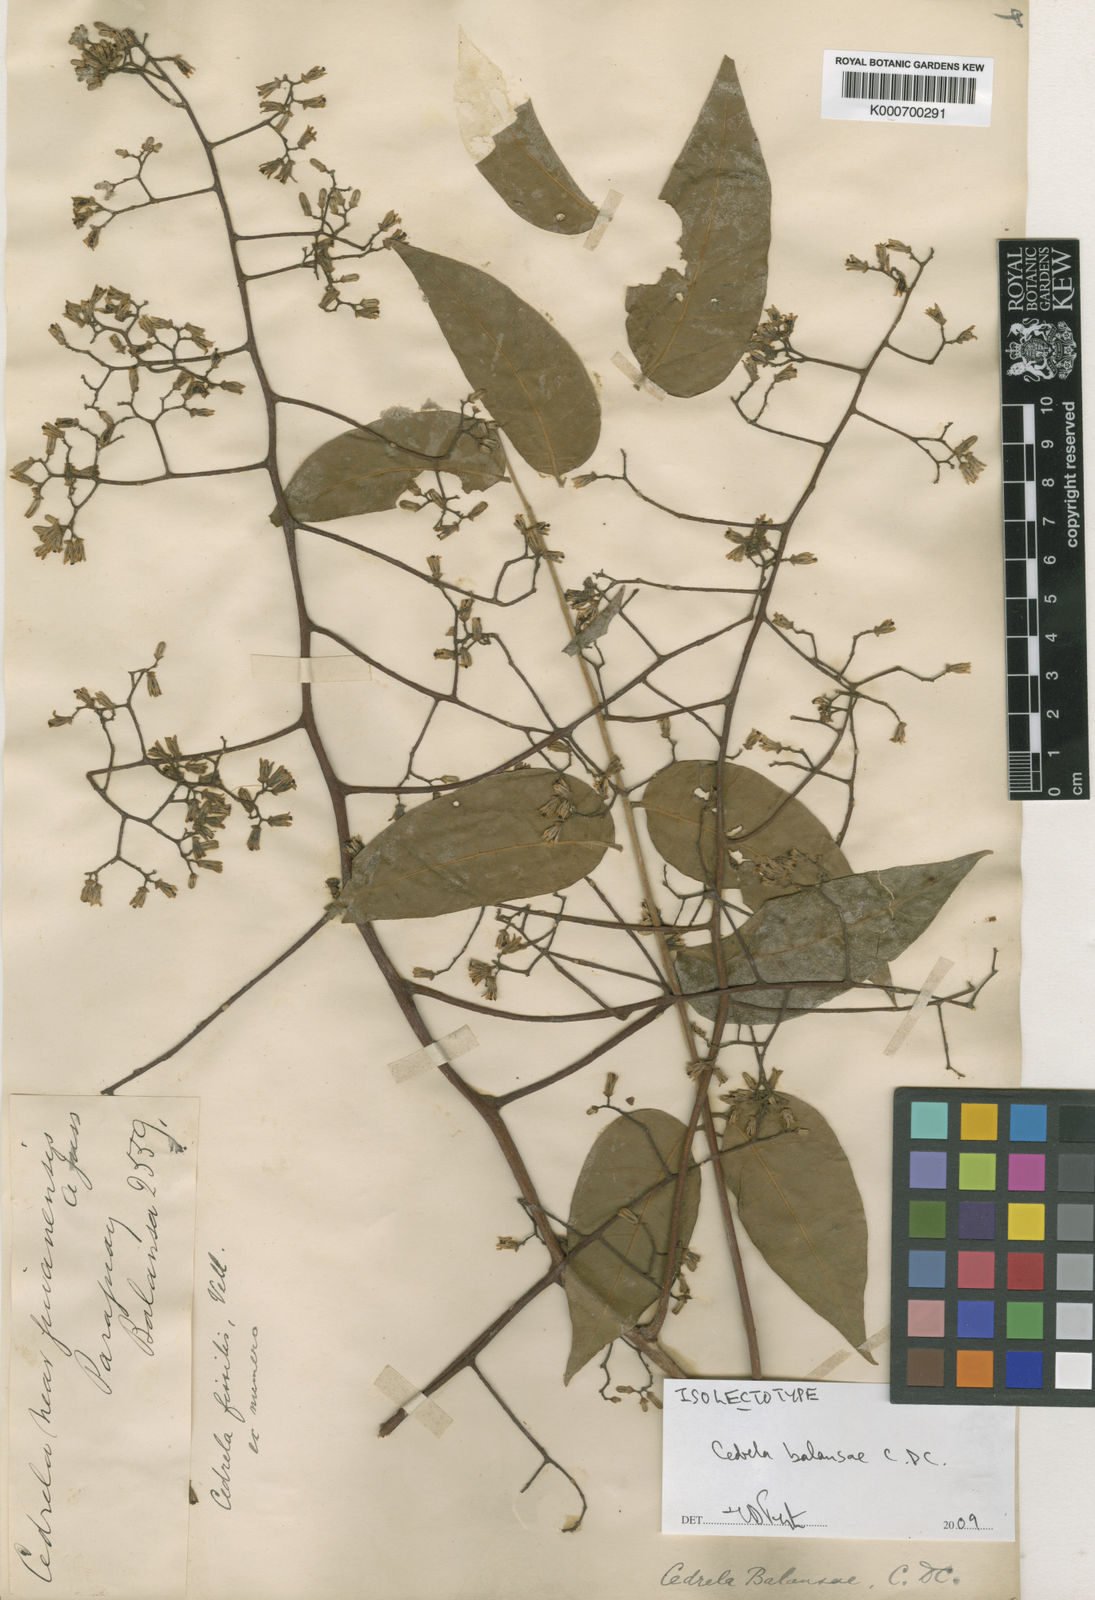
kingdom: Plantae
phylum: Tracheophyta
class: Magnoliopsida
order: Sapindales
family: Meliaceae
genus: Cedrela
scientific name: Cedrela fissilis
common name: Argentine cedar
